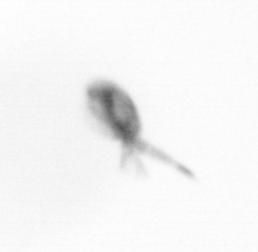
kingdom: Animalia
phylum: Arthropoda
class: Copepoda
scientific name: Copepoda
